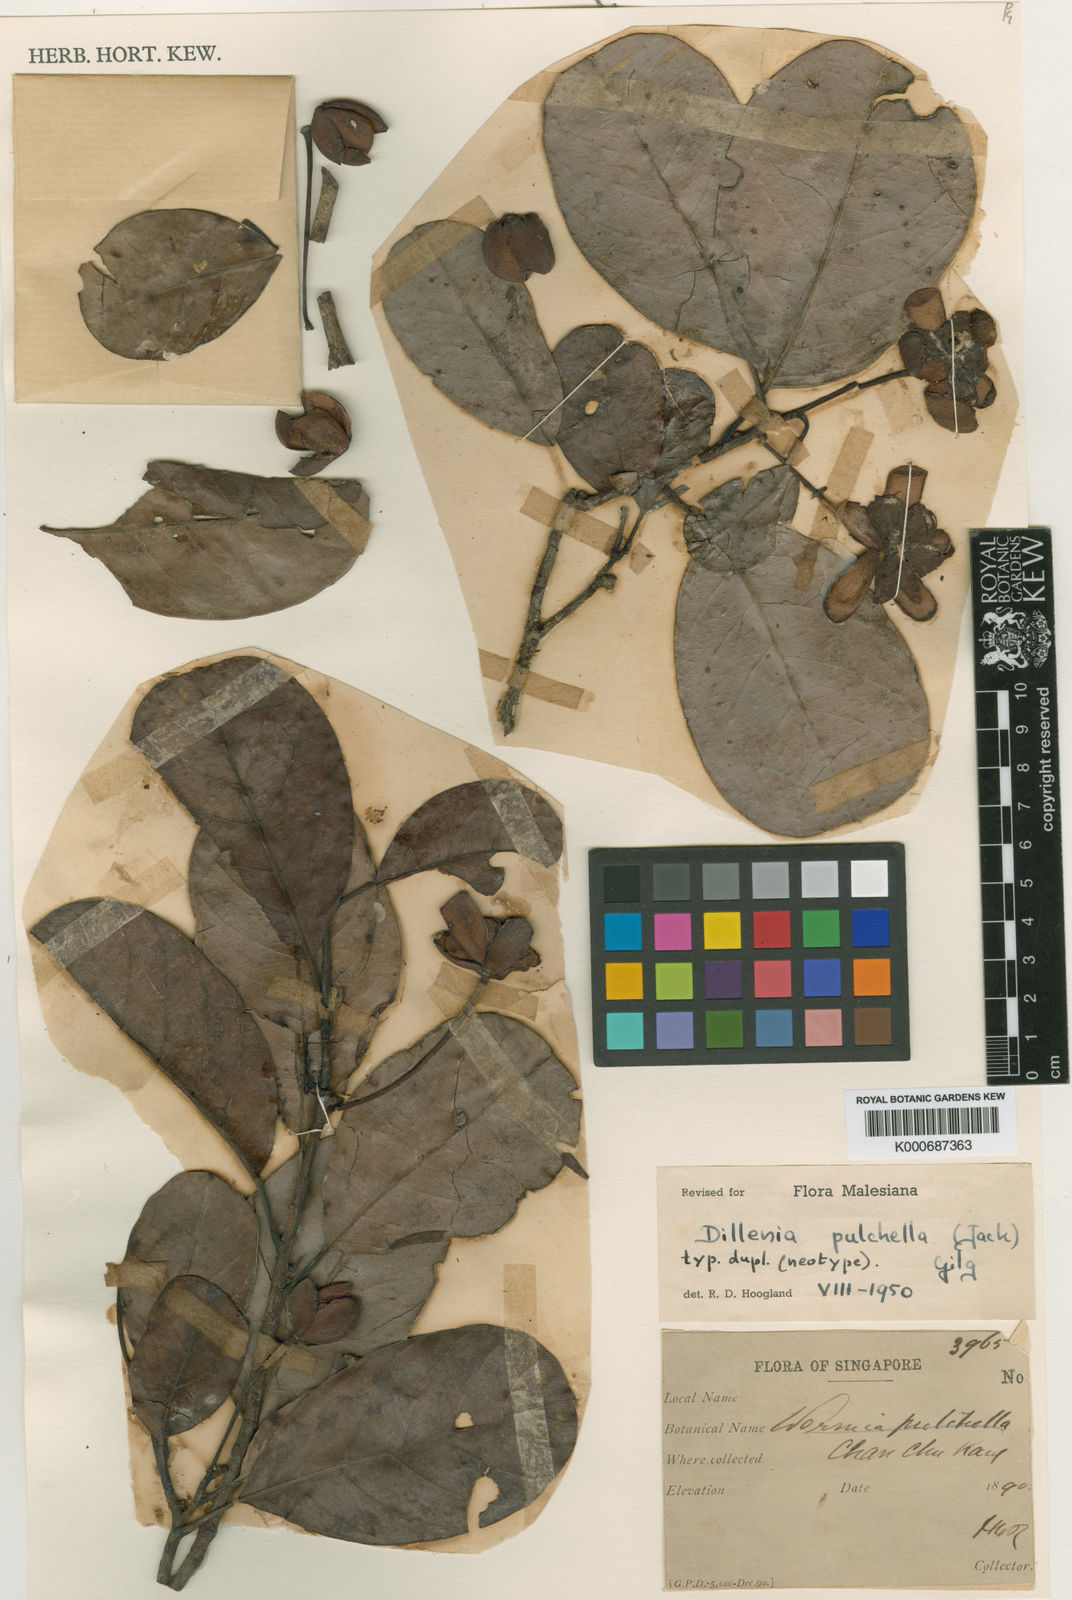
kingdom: Plantae
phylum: Tracheophyta
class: Magnoliopsida
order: Dilleniales
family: Dilleniaceae
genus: Dillenia
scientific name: Dillenia pulchella
